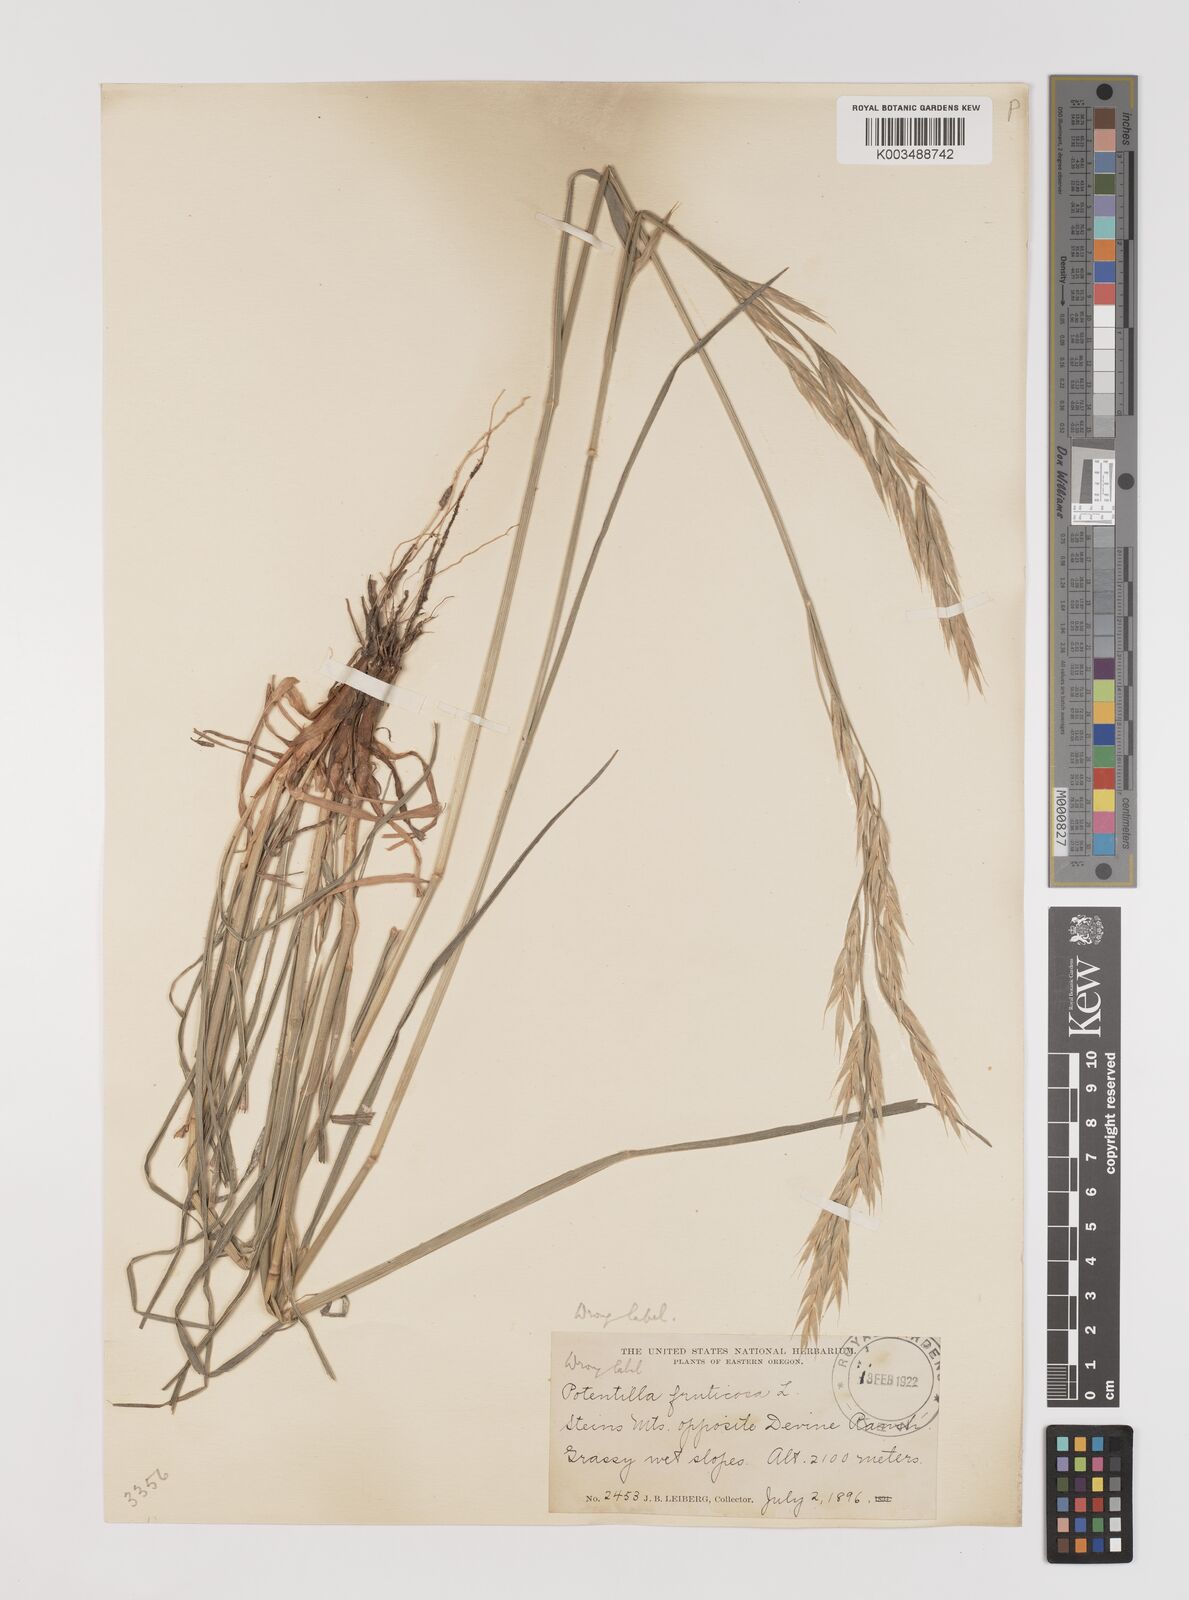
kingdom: Plantae
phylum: Tracheophyta
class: Liliopsida
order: Poales
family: Poaceae
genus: Bromus
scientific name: Bromus
